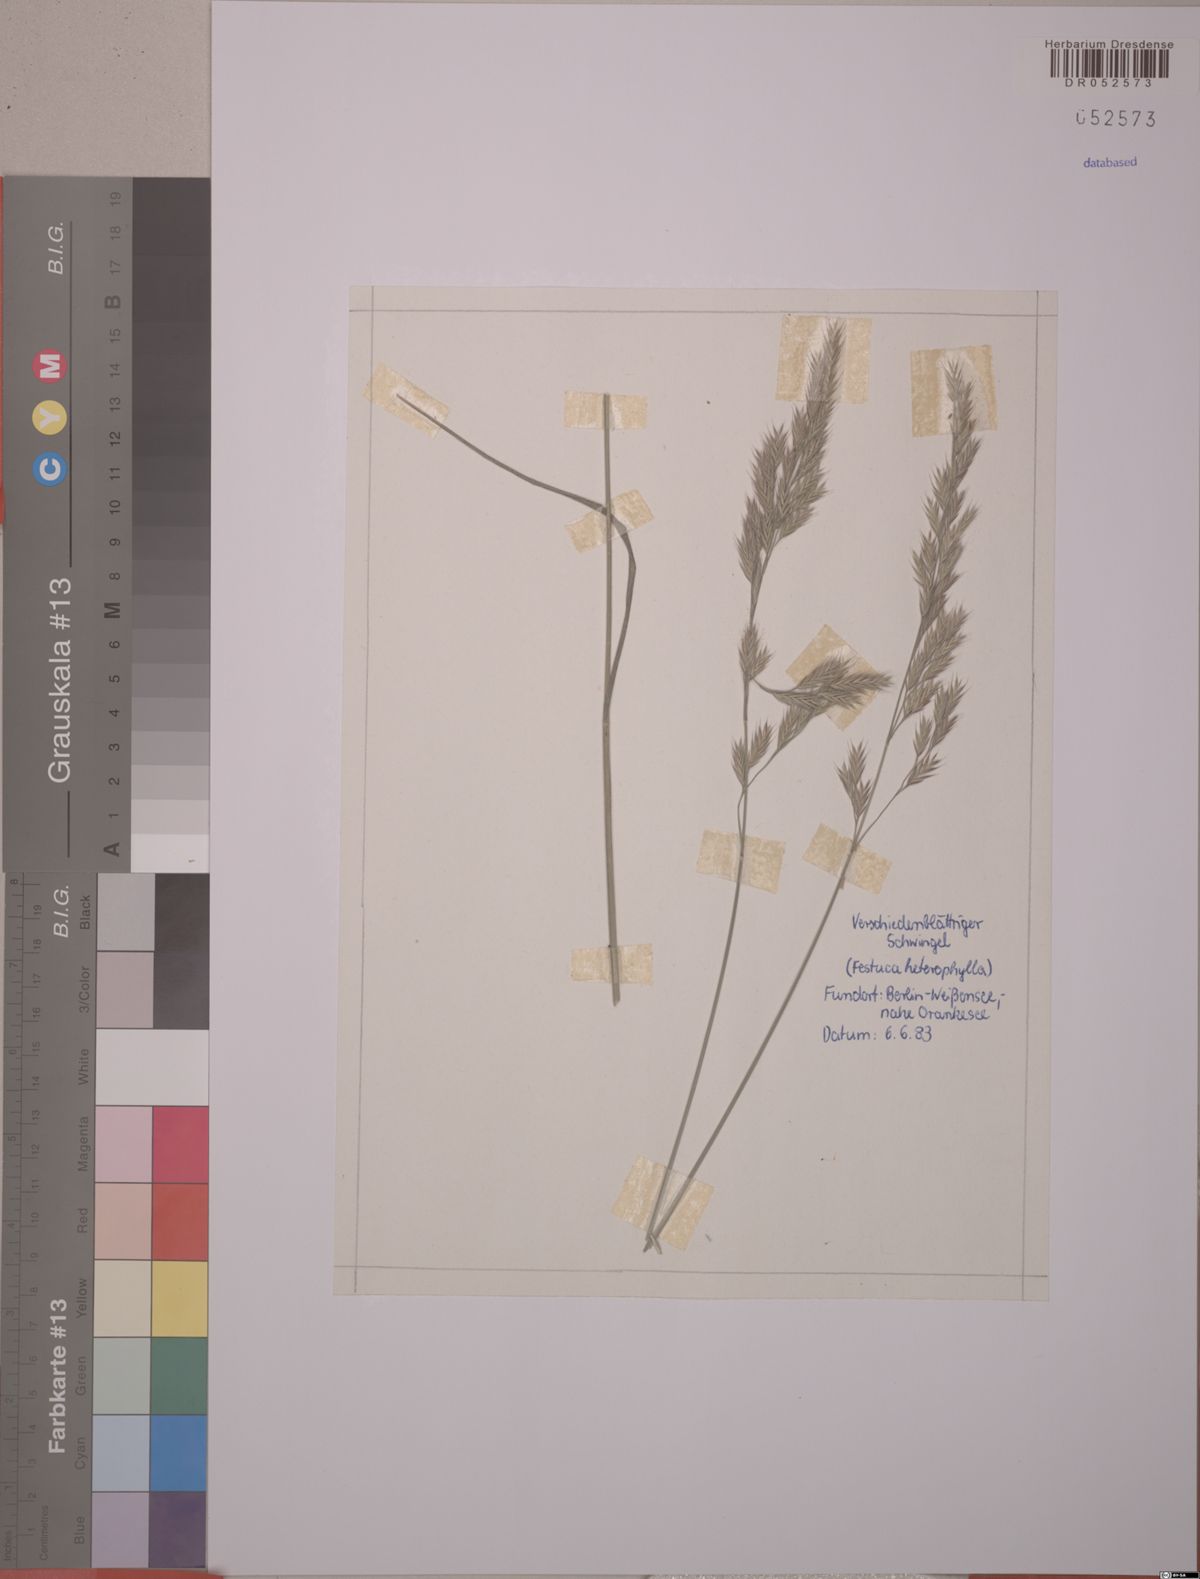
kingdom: Plantae
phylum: Tracheophyta
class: Liliopsida
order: Poales
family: Poaceae
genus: Festuca
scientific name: Festuca heterophylla
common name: Various-leaved fescue
